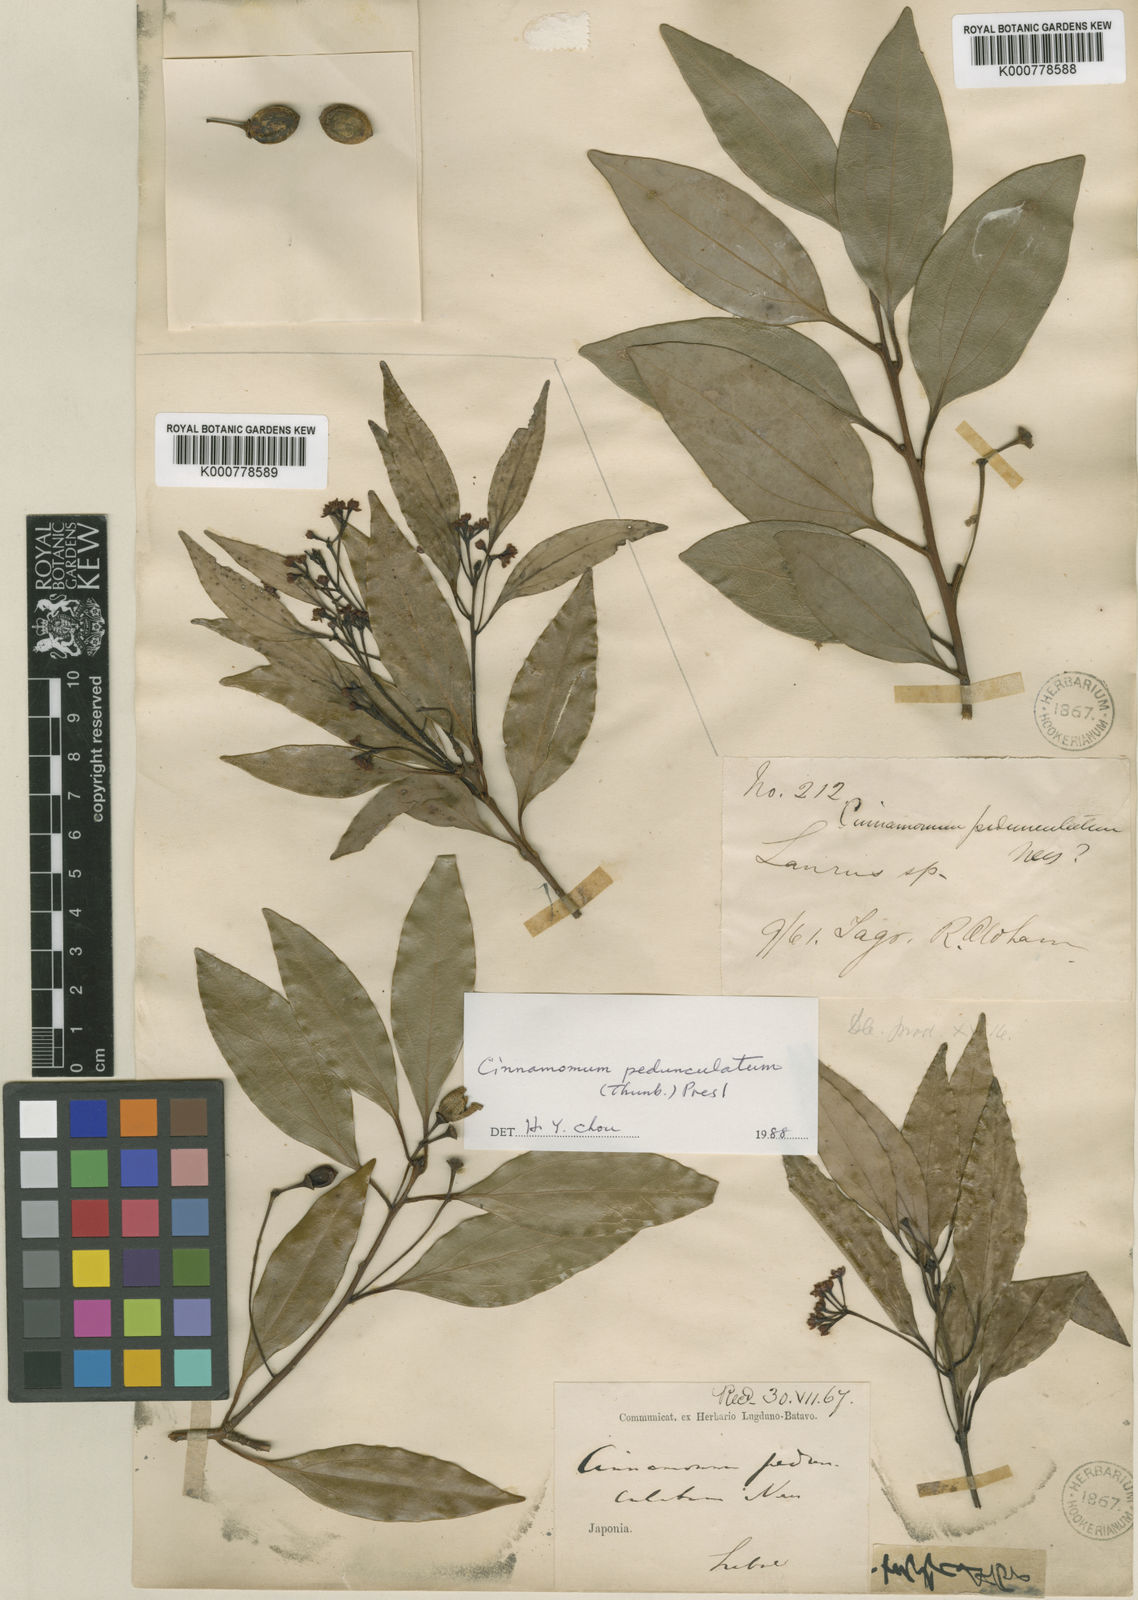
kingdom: Plantae
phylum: Tracheophyta
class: Magnoliopsida
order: Laurales
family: Lauraceae
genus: Cinnamomum
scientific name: Cinnamomum pseudopedunculatum
